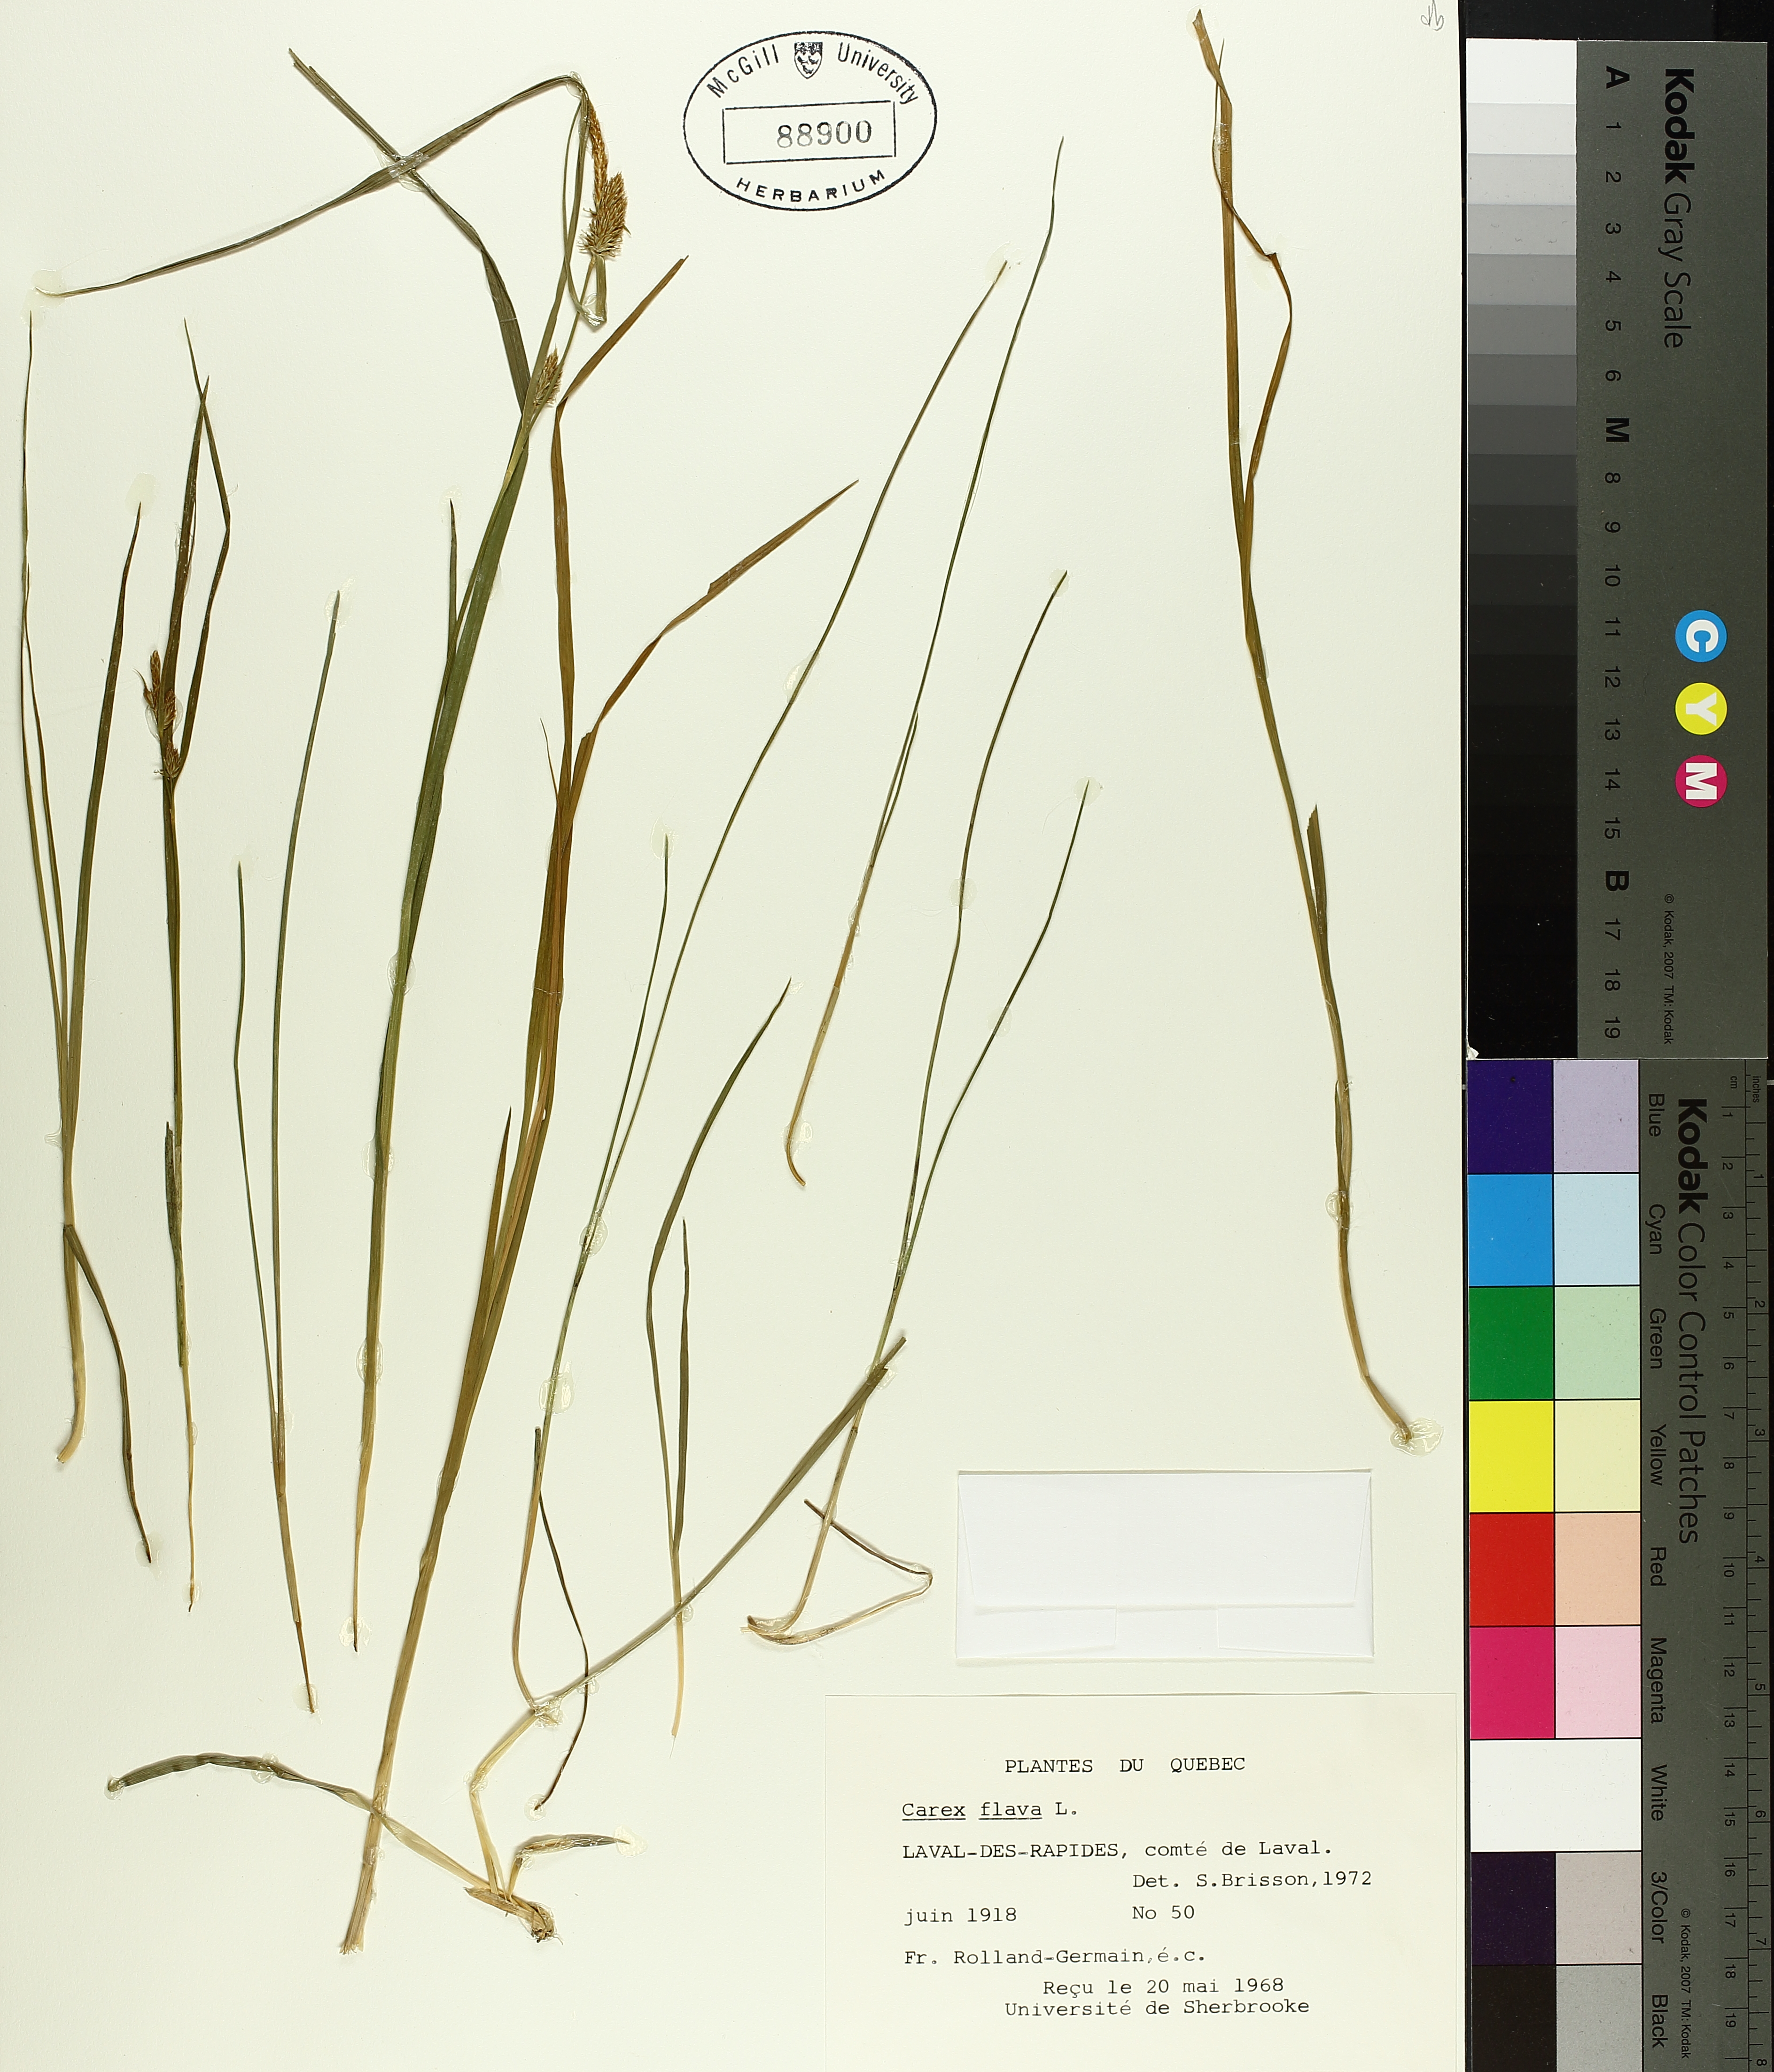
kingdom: Plantae
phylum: Tracheophyta
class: Liliopsida
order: Poales
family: Cyperaceae
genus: Carex
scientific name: Carex flava
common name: Large yellow-sedge
